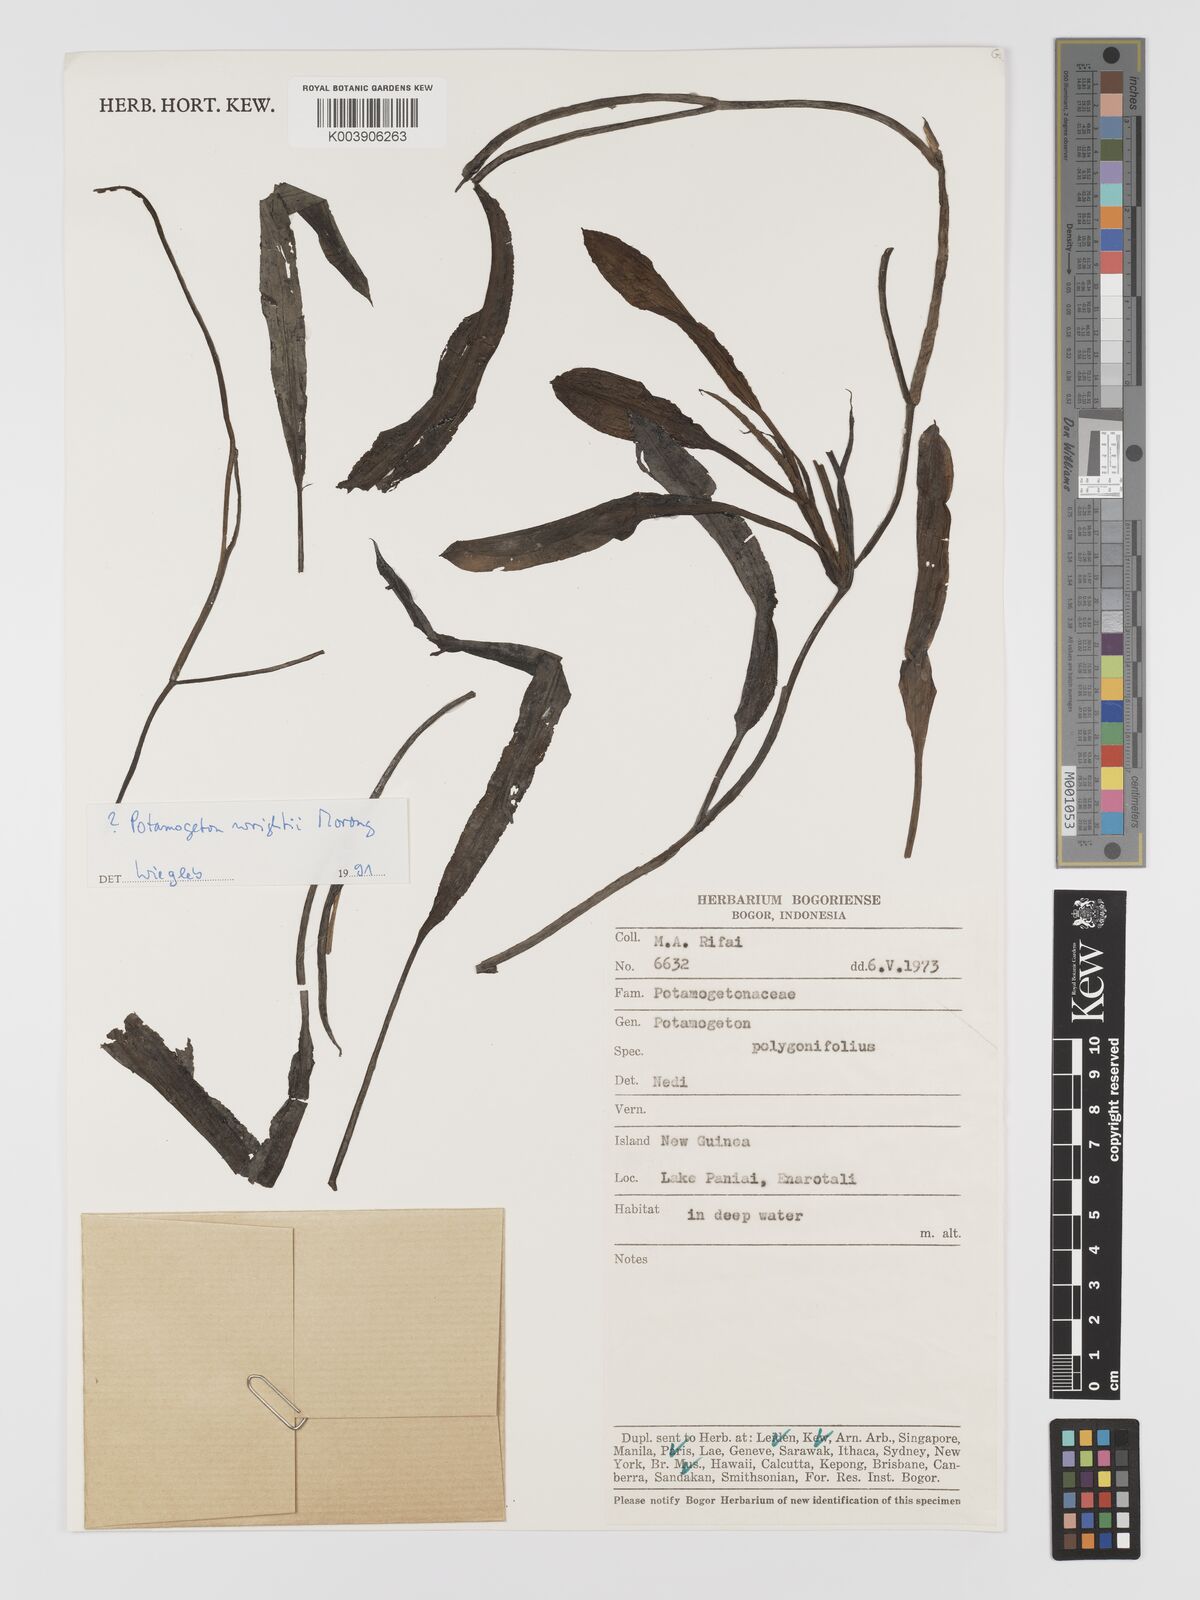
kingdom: Plantae
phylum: Tracheophyta
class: Liliopsida
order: Alismatales
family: Potamogetonaceae
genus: Potamogeton
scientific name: Potamogeton wrightii
